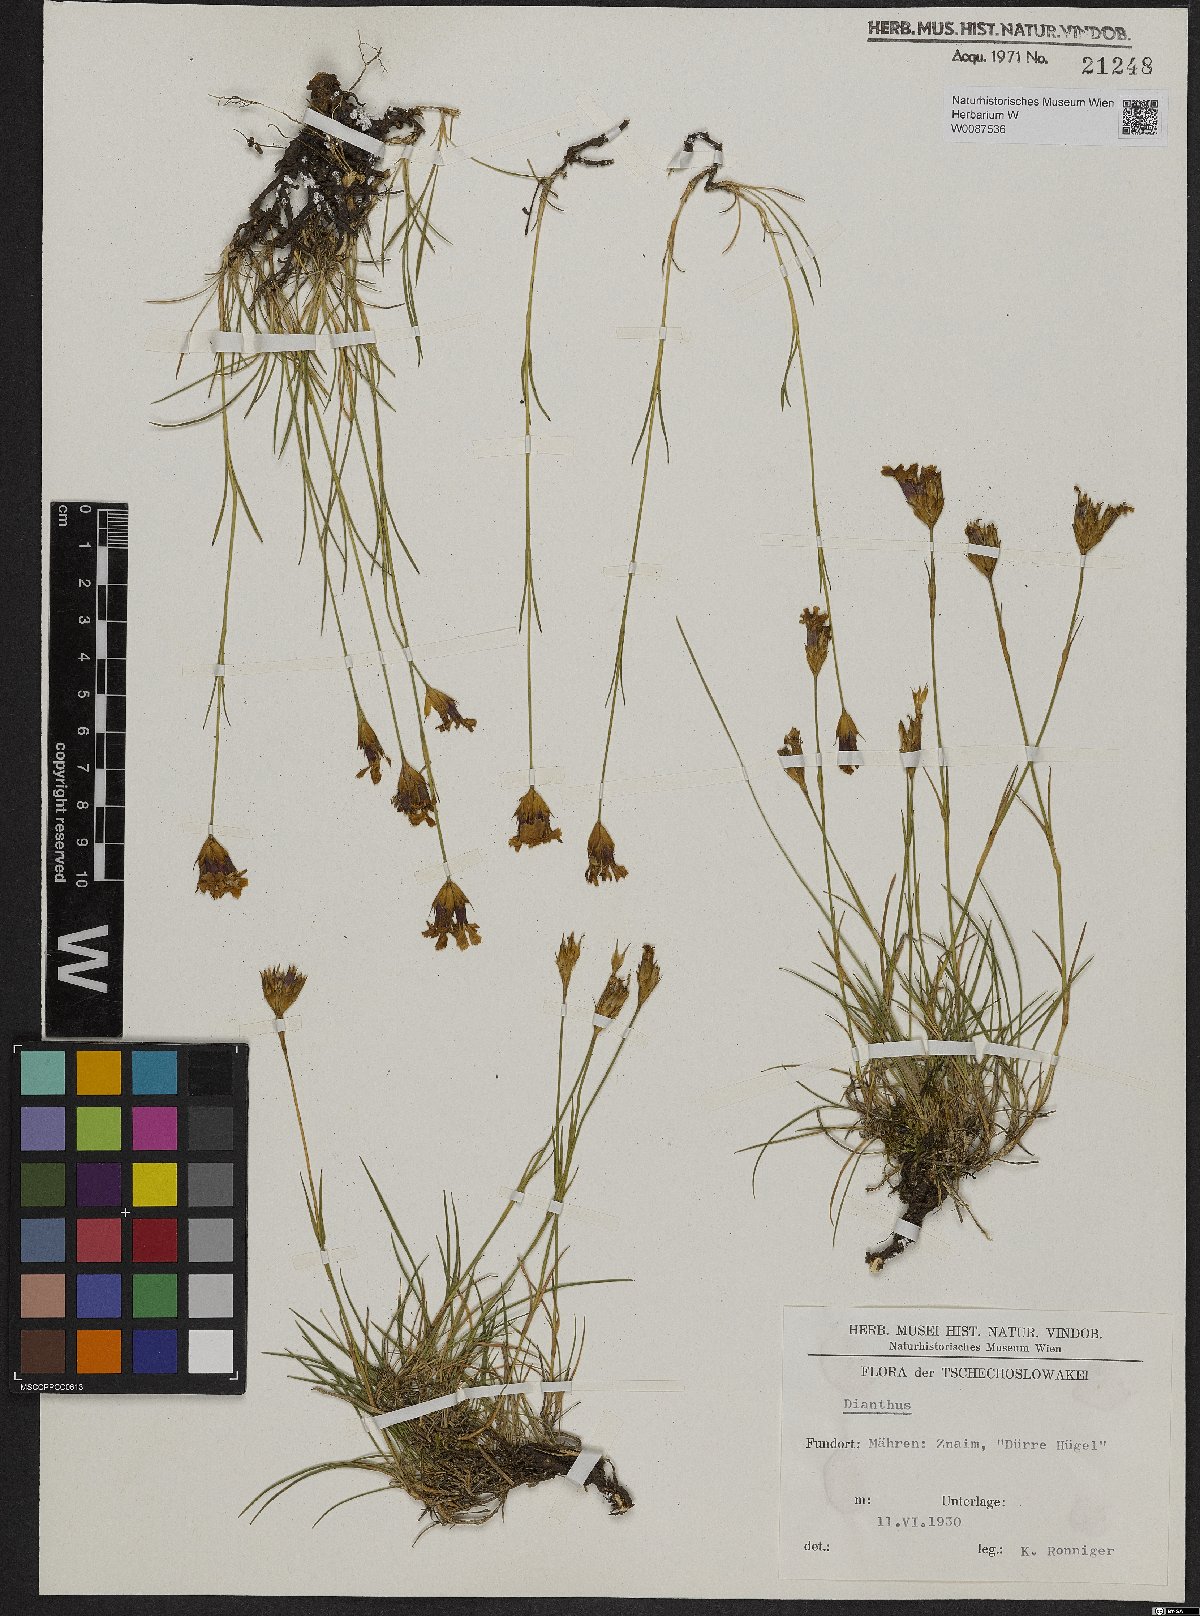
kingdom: Plantae
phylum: Tracheophyta
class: Magnoliopsida
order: Caryophyllales
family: Caryophyllaceae
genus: Dianthus
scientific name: Dianthus pontederae
